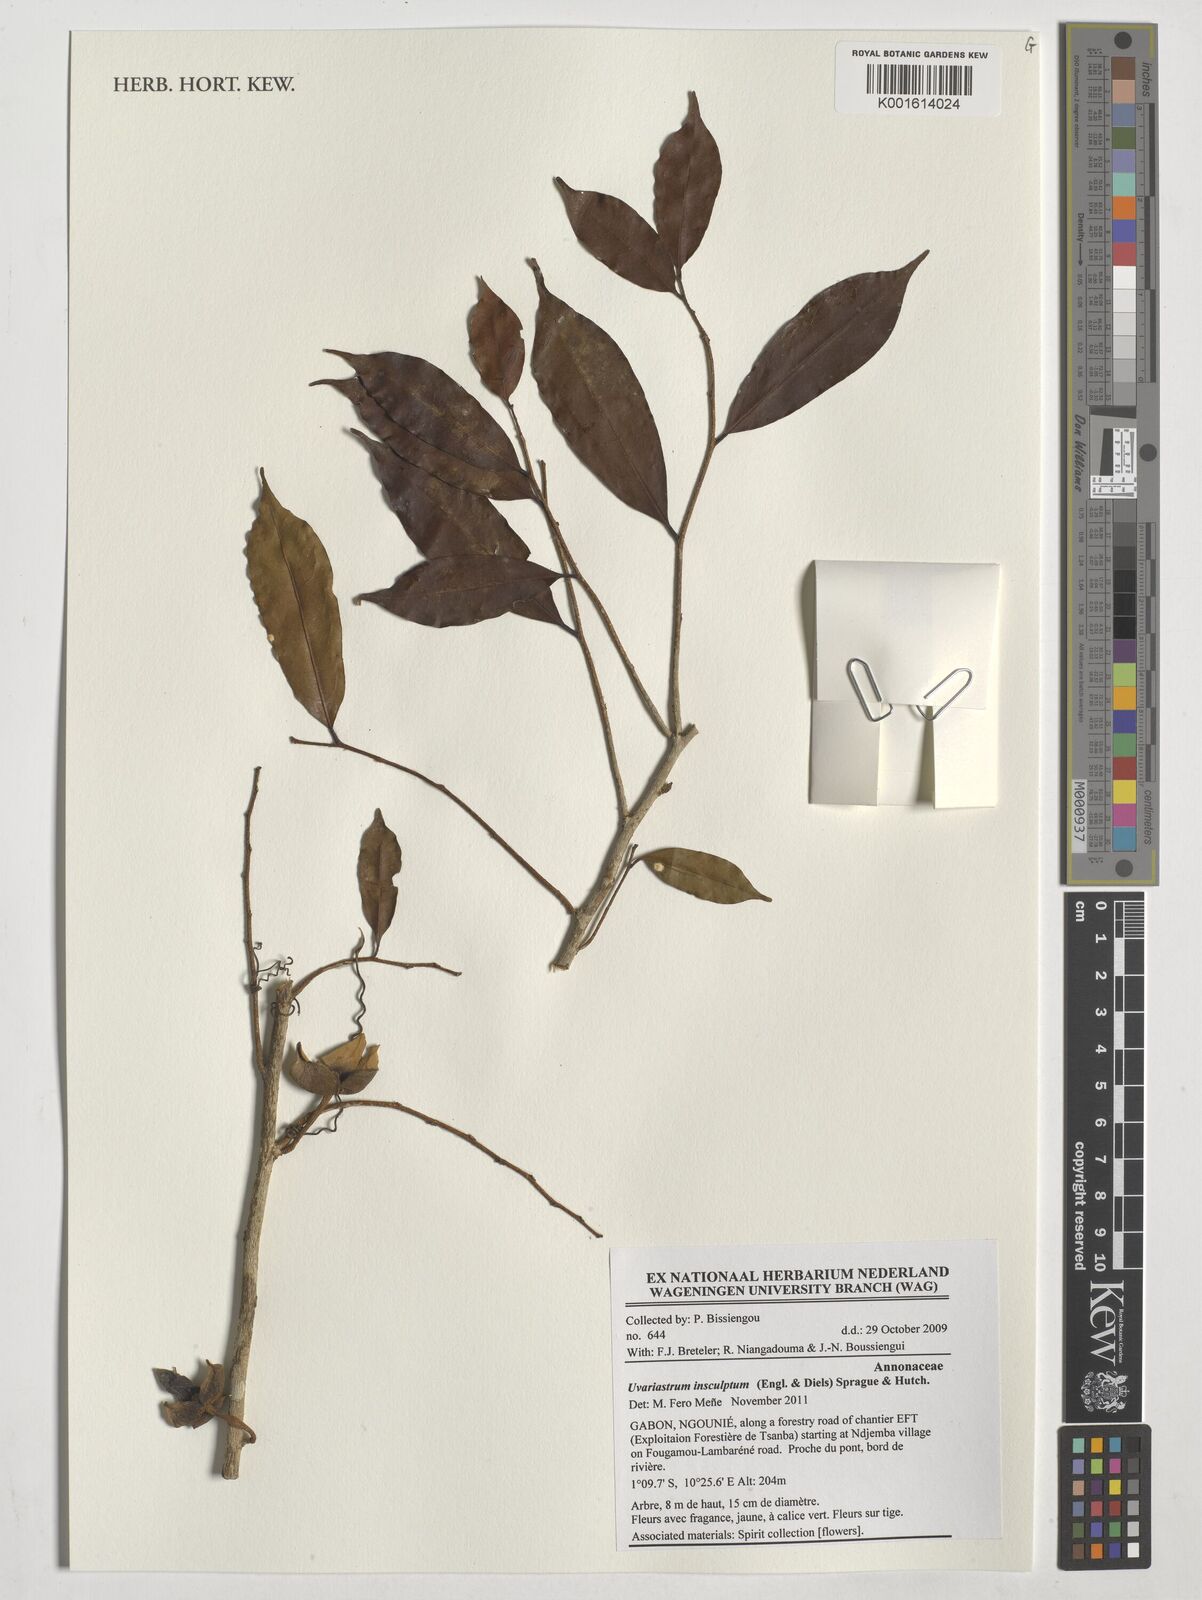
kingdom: Plantae
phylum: Tracheophyta
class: Magnoliopsida
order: Magnoliales
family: Annonaceae
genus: Uvariastrum
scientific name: Uvariastrum pierreanum
